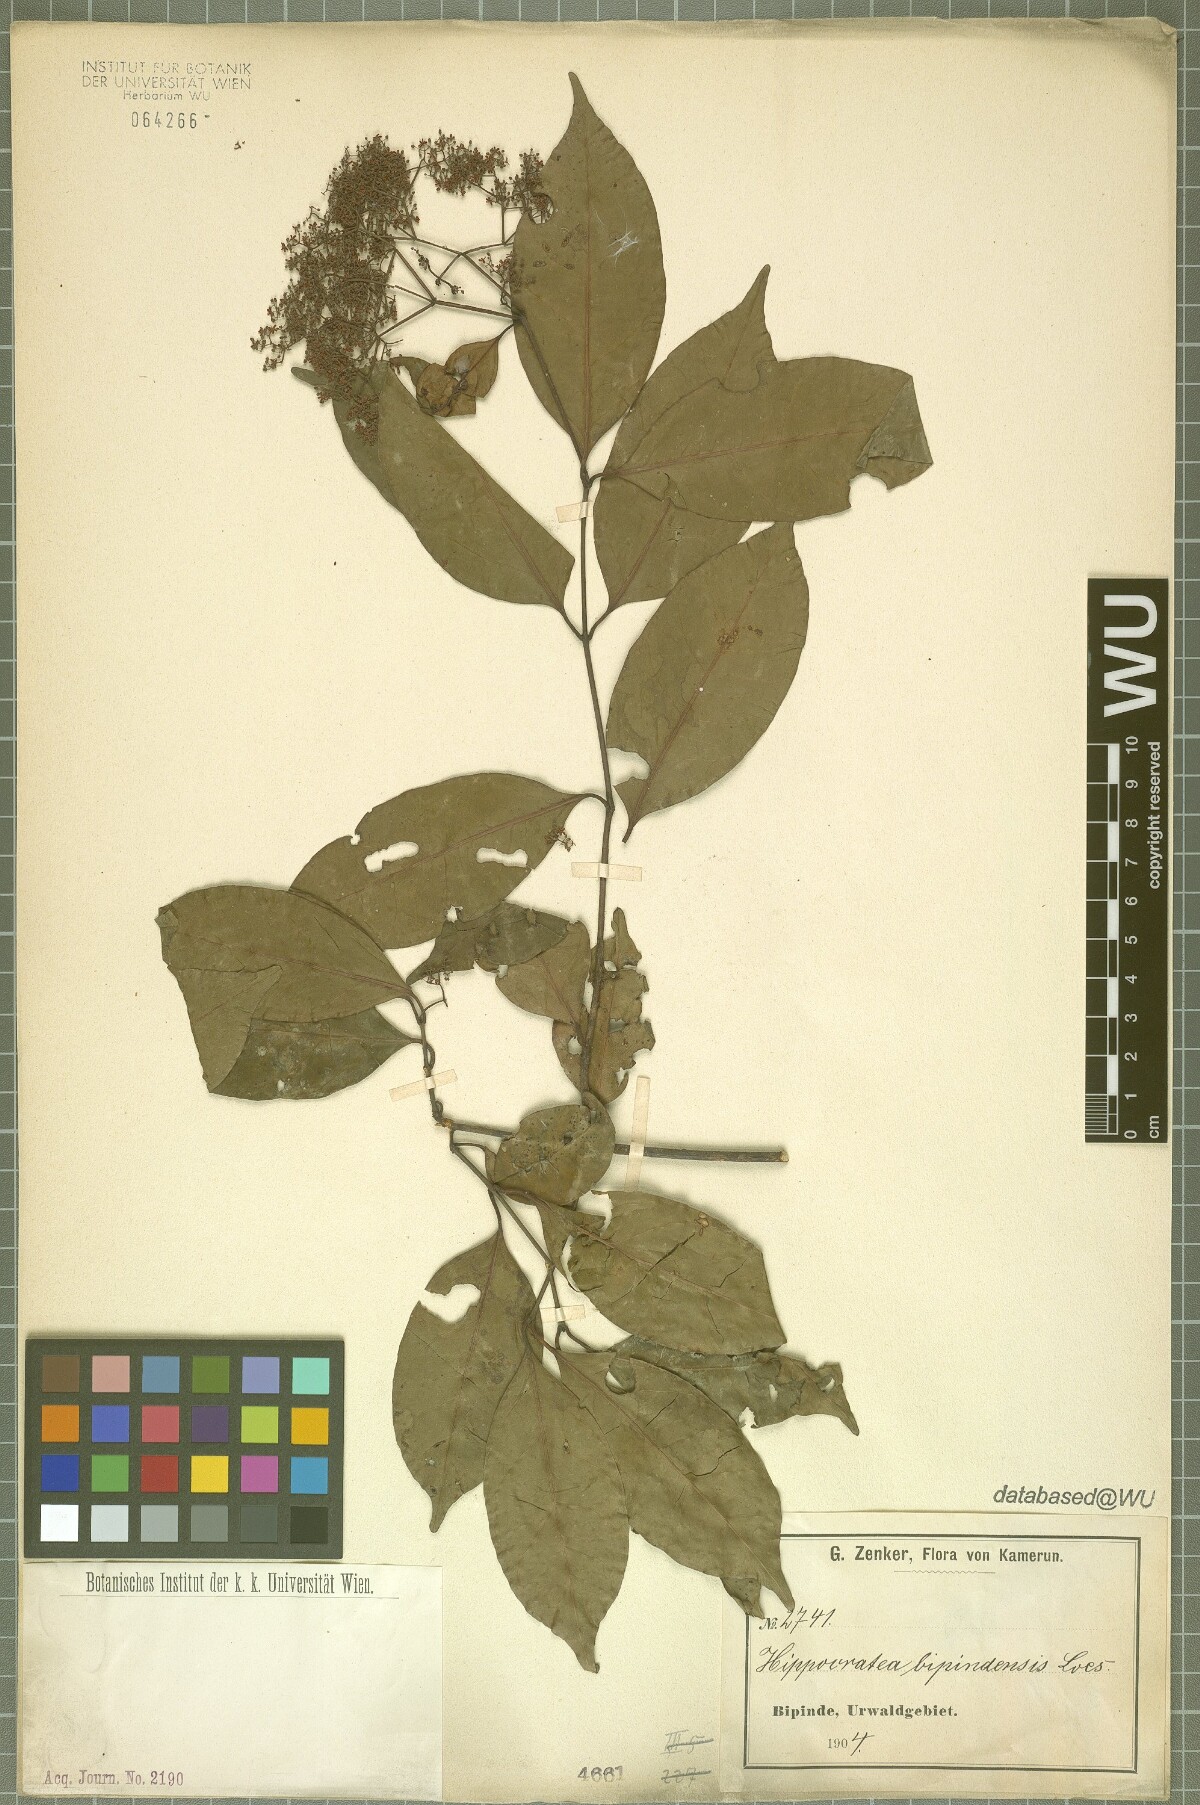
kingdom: Plantae
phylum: Tracheophyta
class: Magnoliopsida
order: Celastrales
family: Celastraceae
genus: Elachyptera
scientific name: Elachyptera bipindensis
